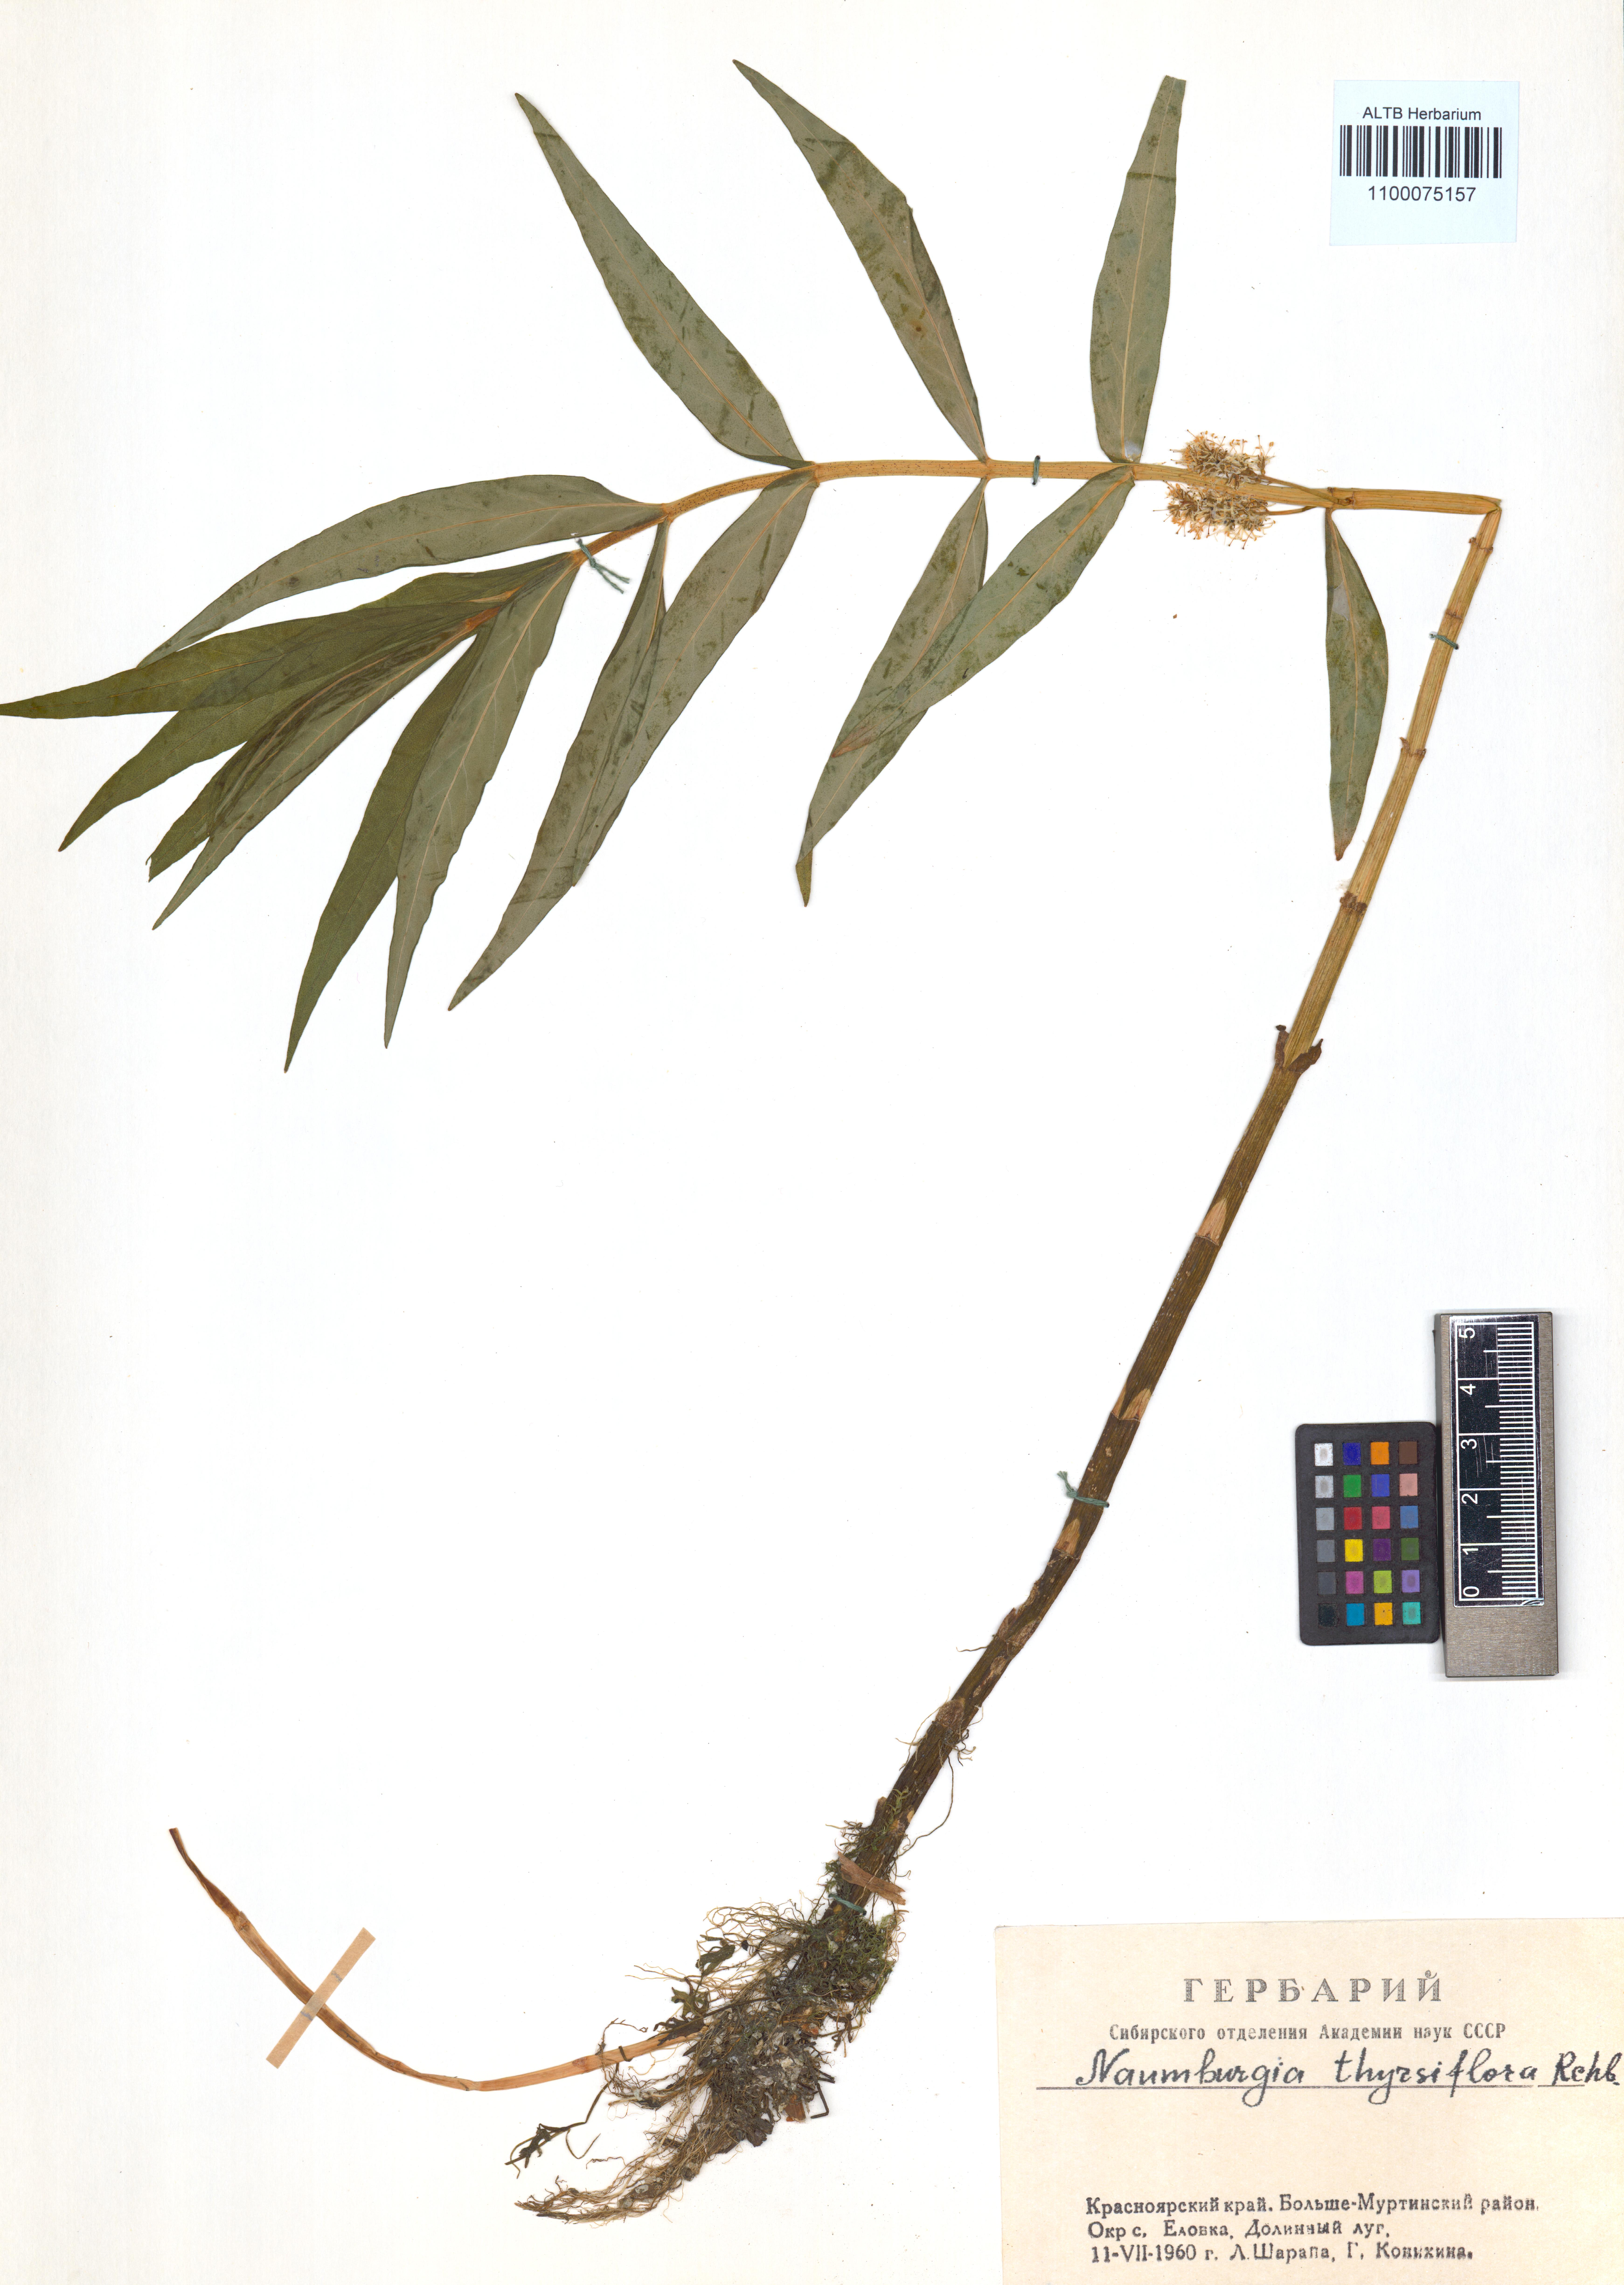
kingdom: Plantae
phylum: Tracheophyta
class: Magnoliopsida
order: Ericales
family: Primulaceae
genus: Lysimachia
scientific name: Lysimachia thyrsiflora
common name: Tufted loosestrife
